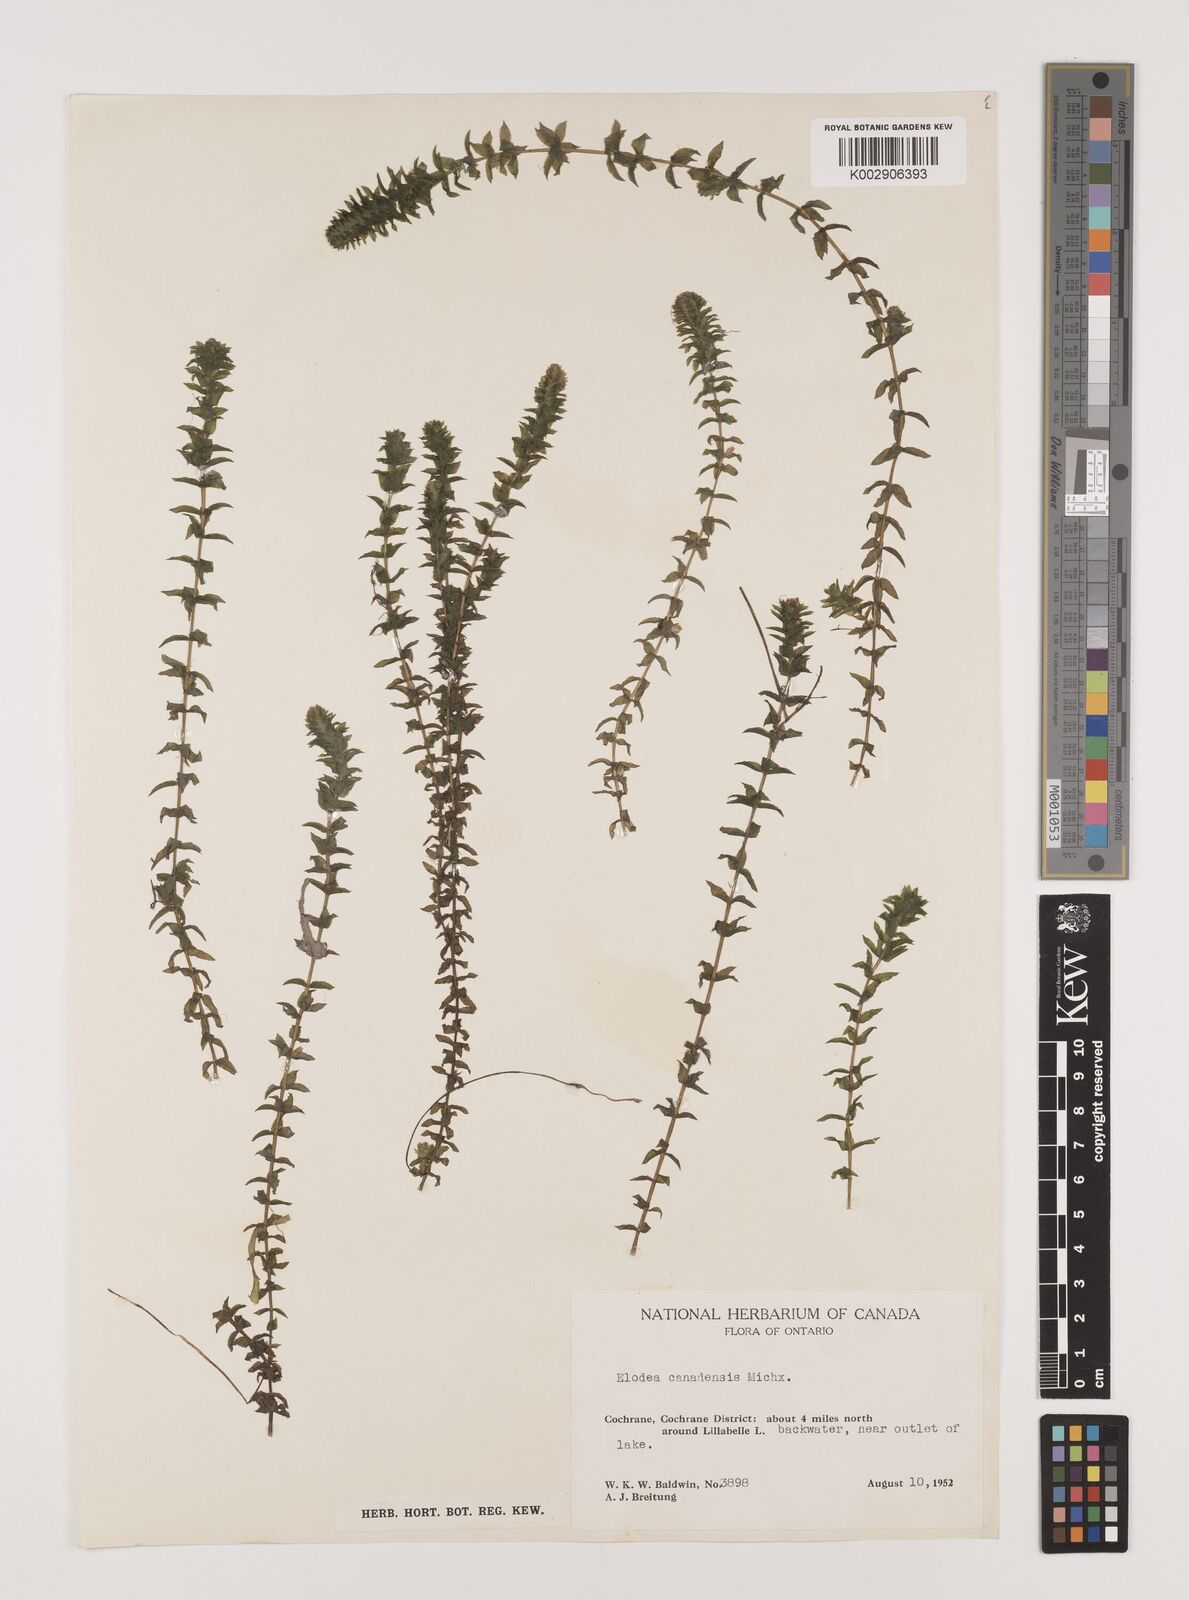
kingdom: Plantae
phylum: Tracheophyta
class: Liliopsida
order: Alismatales
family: Hydrocharitaceae
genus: Elodea
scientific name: Elodea canadensis
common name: Canadian waterweed
